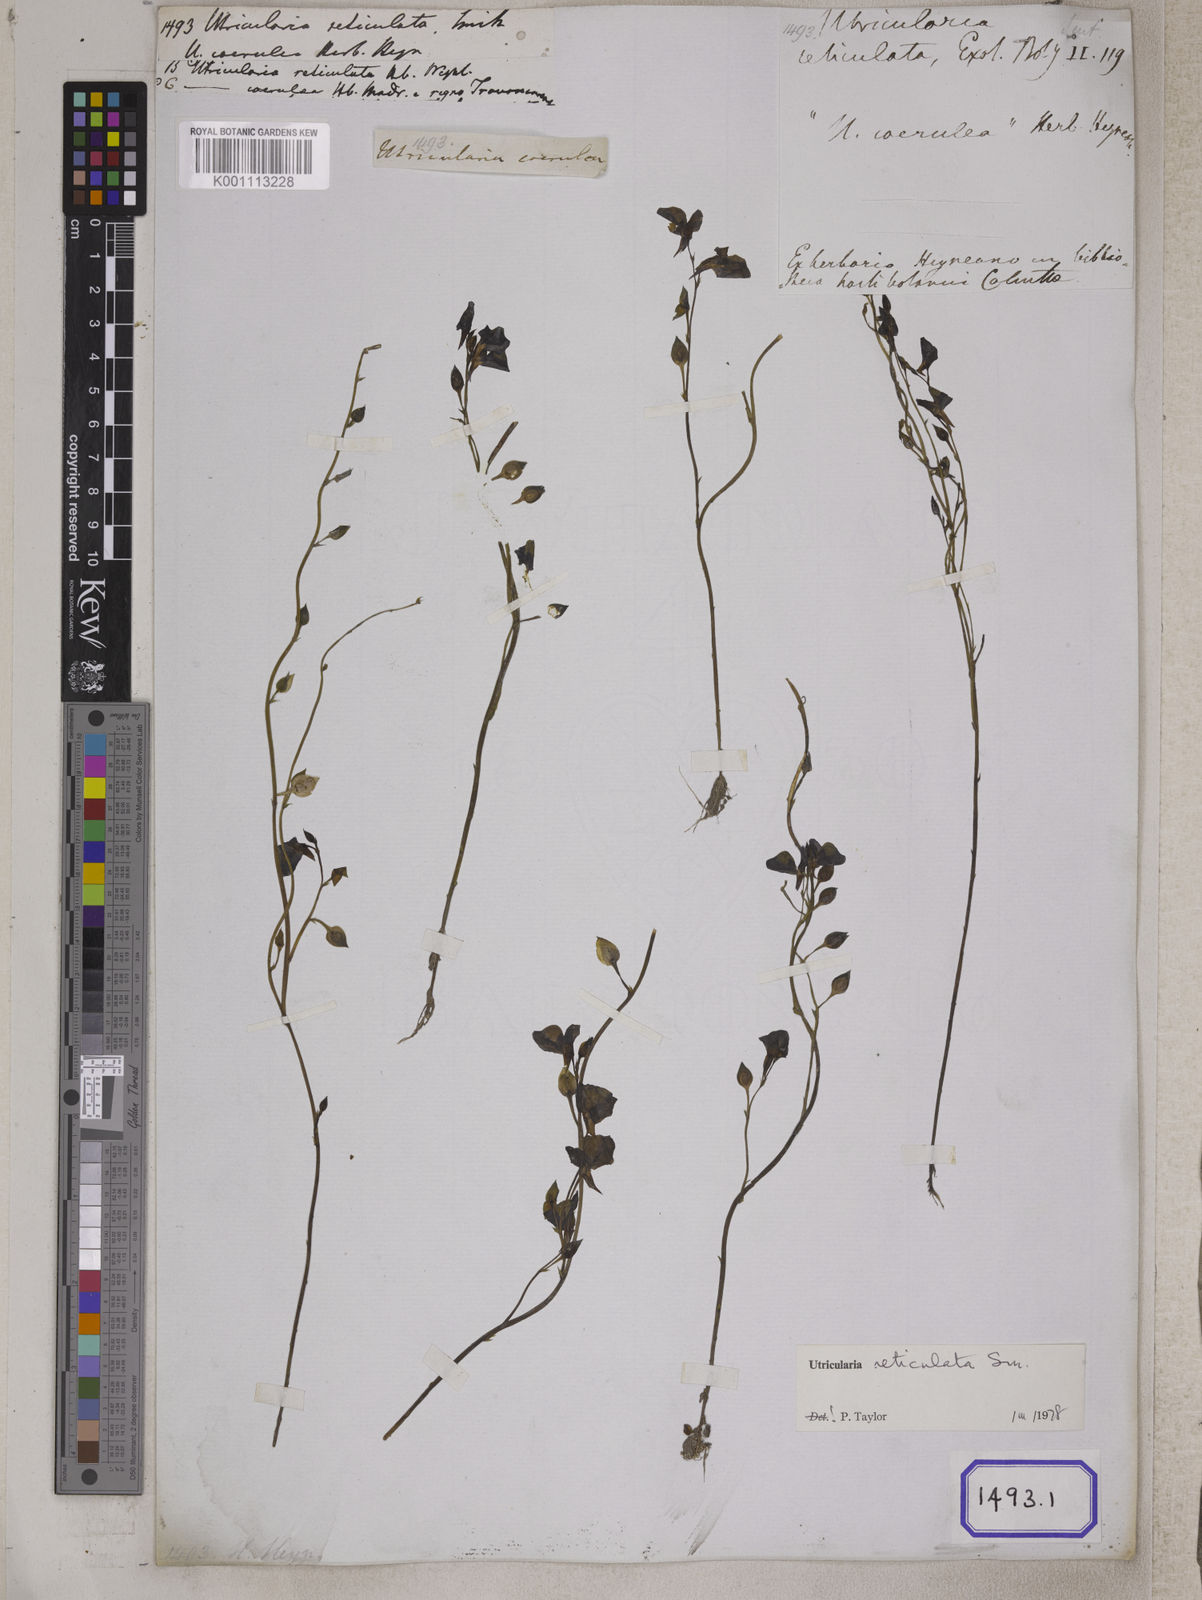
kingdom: Plantae
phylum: Tracheophyta
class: Magnoliopsida
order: Lamiales
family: Lentibulariaceae
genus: Utricularia
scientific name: Utricularia reticulata
